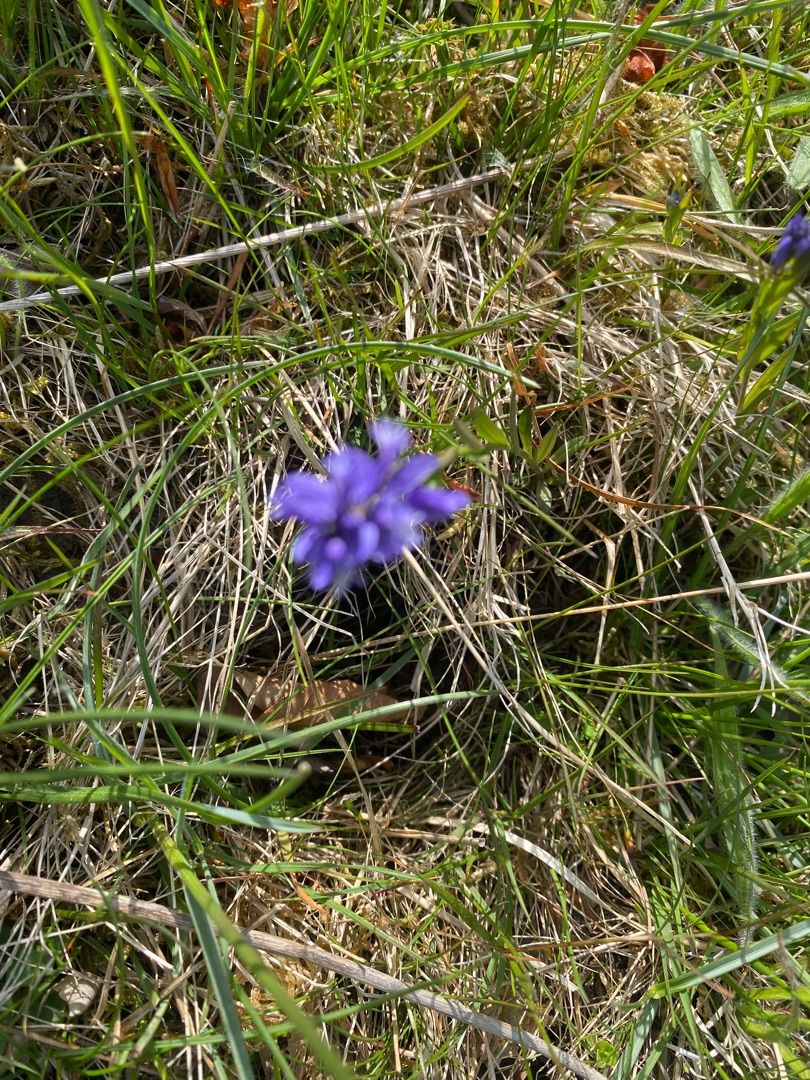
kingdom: Plantae
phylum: Tracheophyta
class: Magnoliopsida
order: Fabales
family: Polygalaceae
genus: Polygala
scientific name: Polygala vulgaris
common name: Almindelig mælkeurt
